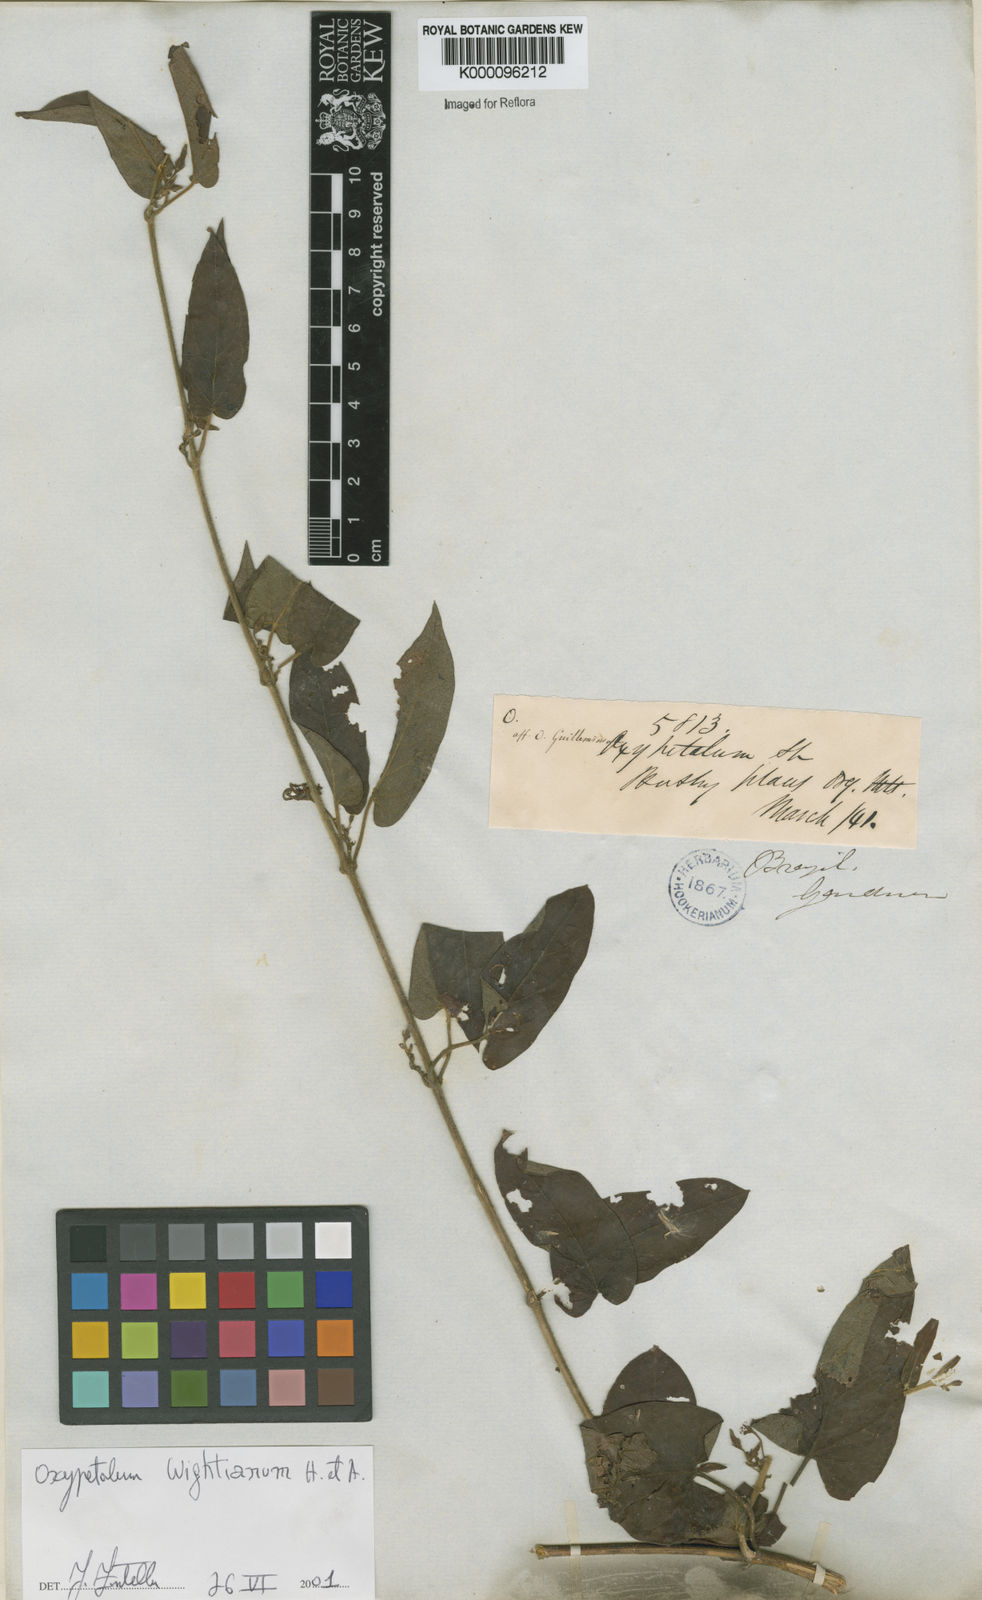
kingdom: Plantae
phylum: Tracheophyta
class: Magnoliopsida
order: Gentianales
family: Apocynaceae
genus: Oxypetalum
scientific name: Oxypetalum wightianum
